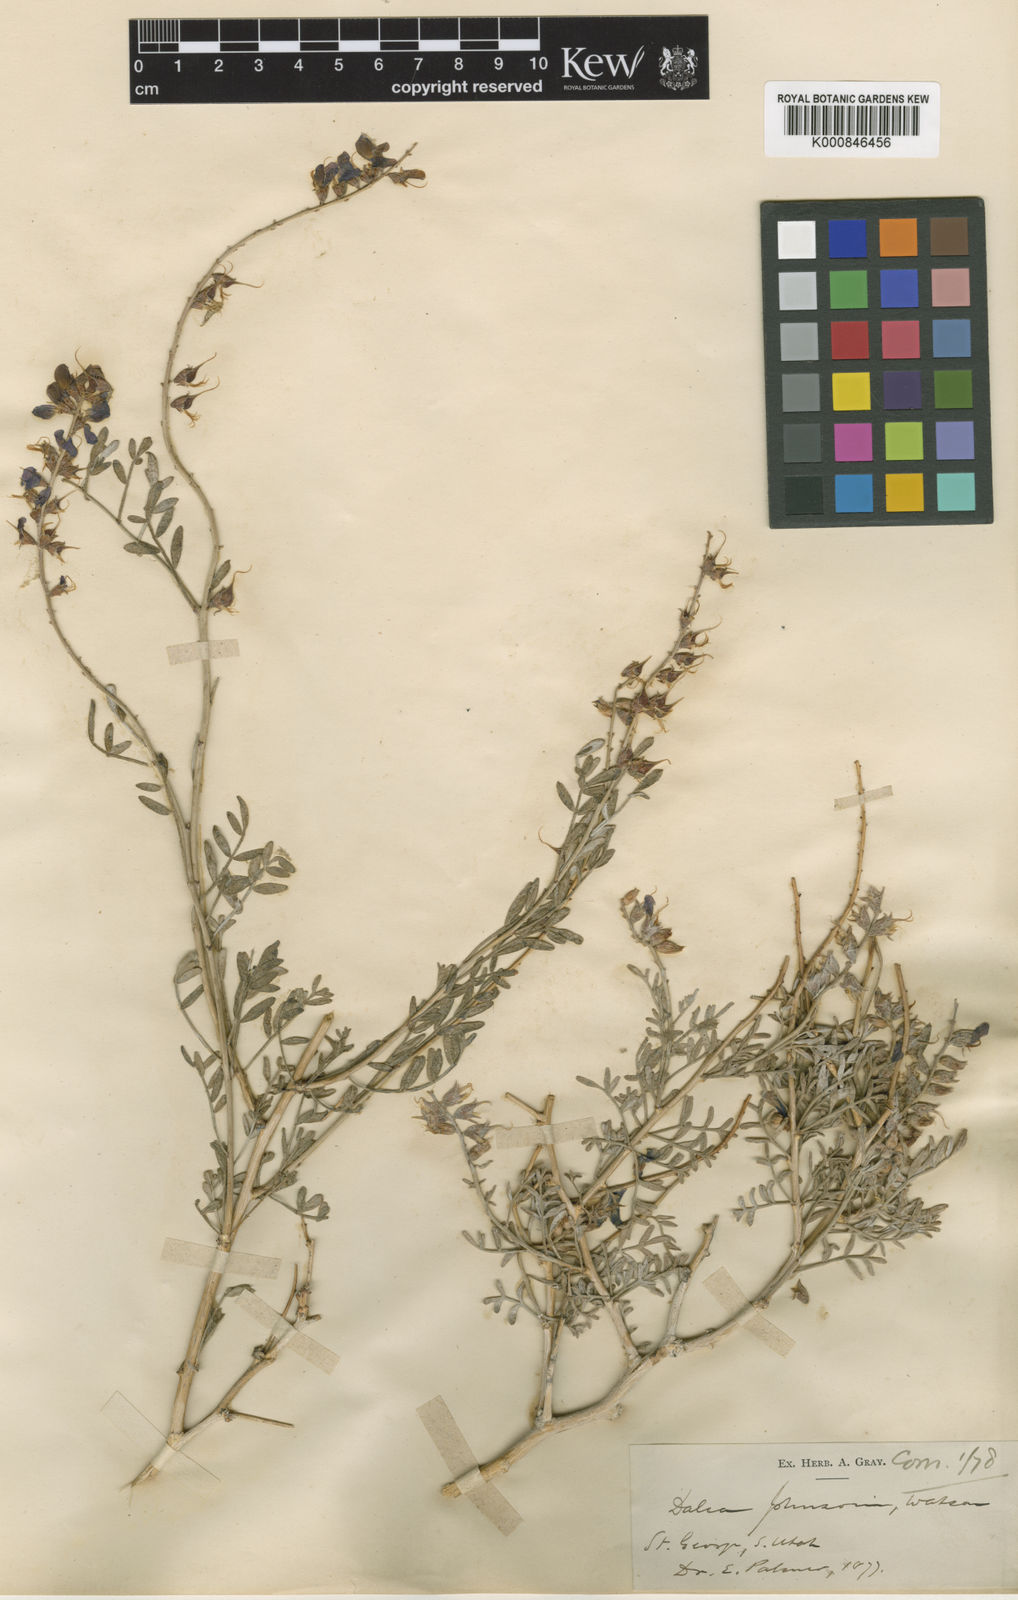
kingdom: Plantae
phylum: Tracheophyta
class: Magnoliopsida
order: Fabales
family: Fabaceae
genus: Psorothamnus
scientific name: Psorothamnus fremontii
